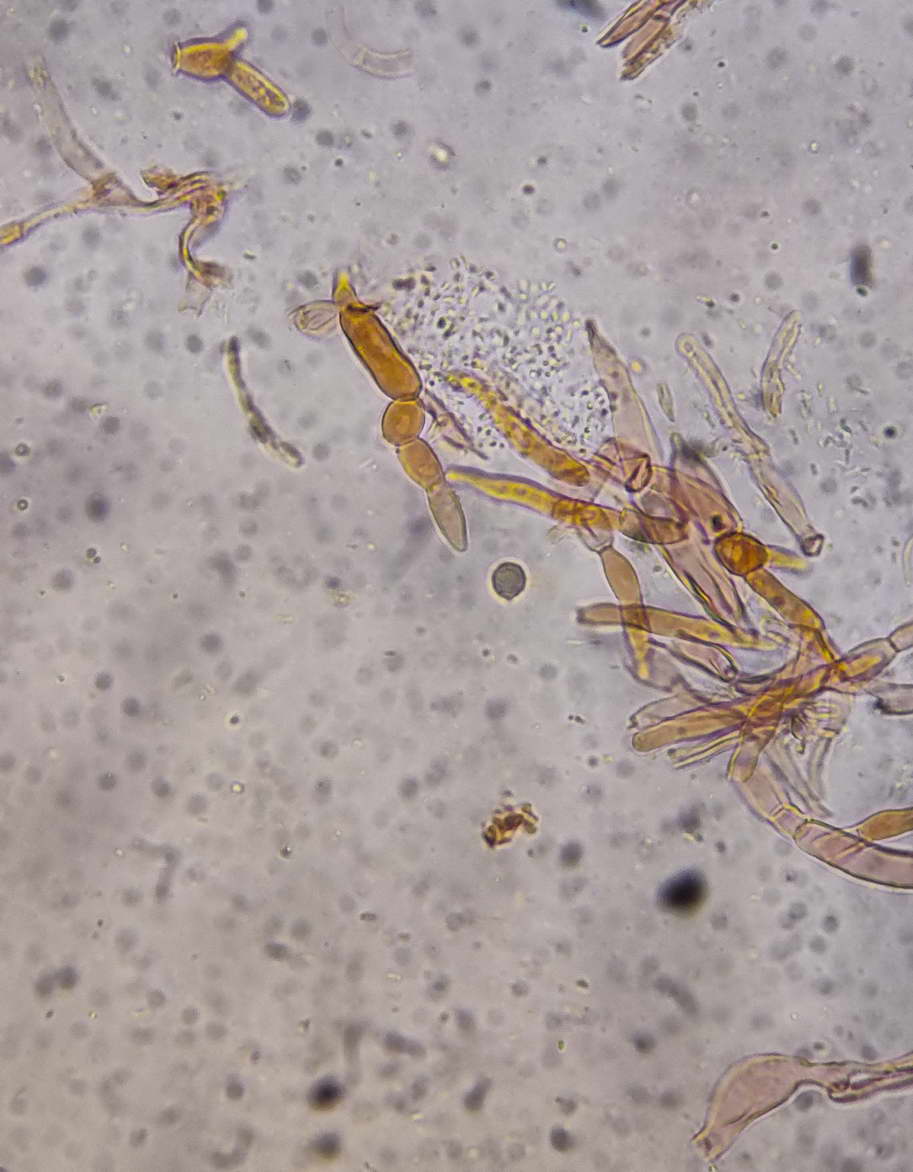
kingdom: Fungi
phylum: Basidiomycota
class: Agaricomycetes
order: Russulales
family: Russulaceae
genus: Russula
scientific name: Russula faustiana
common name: olivengrå skørhat
